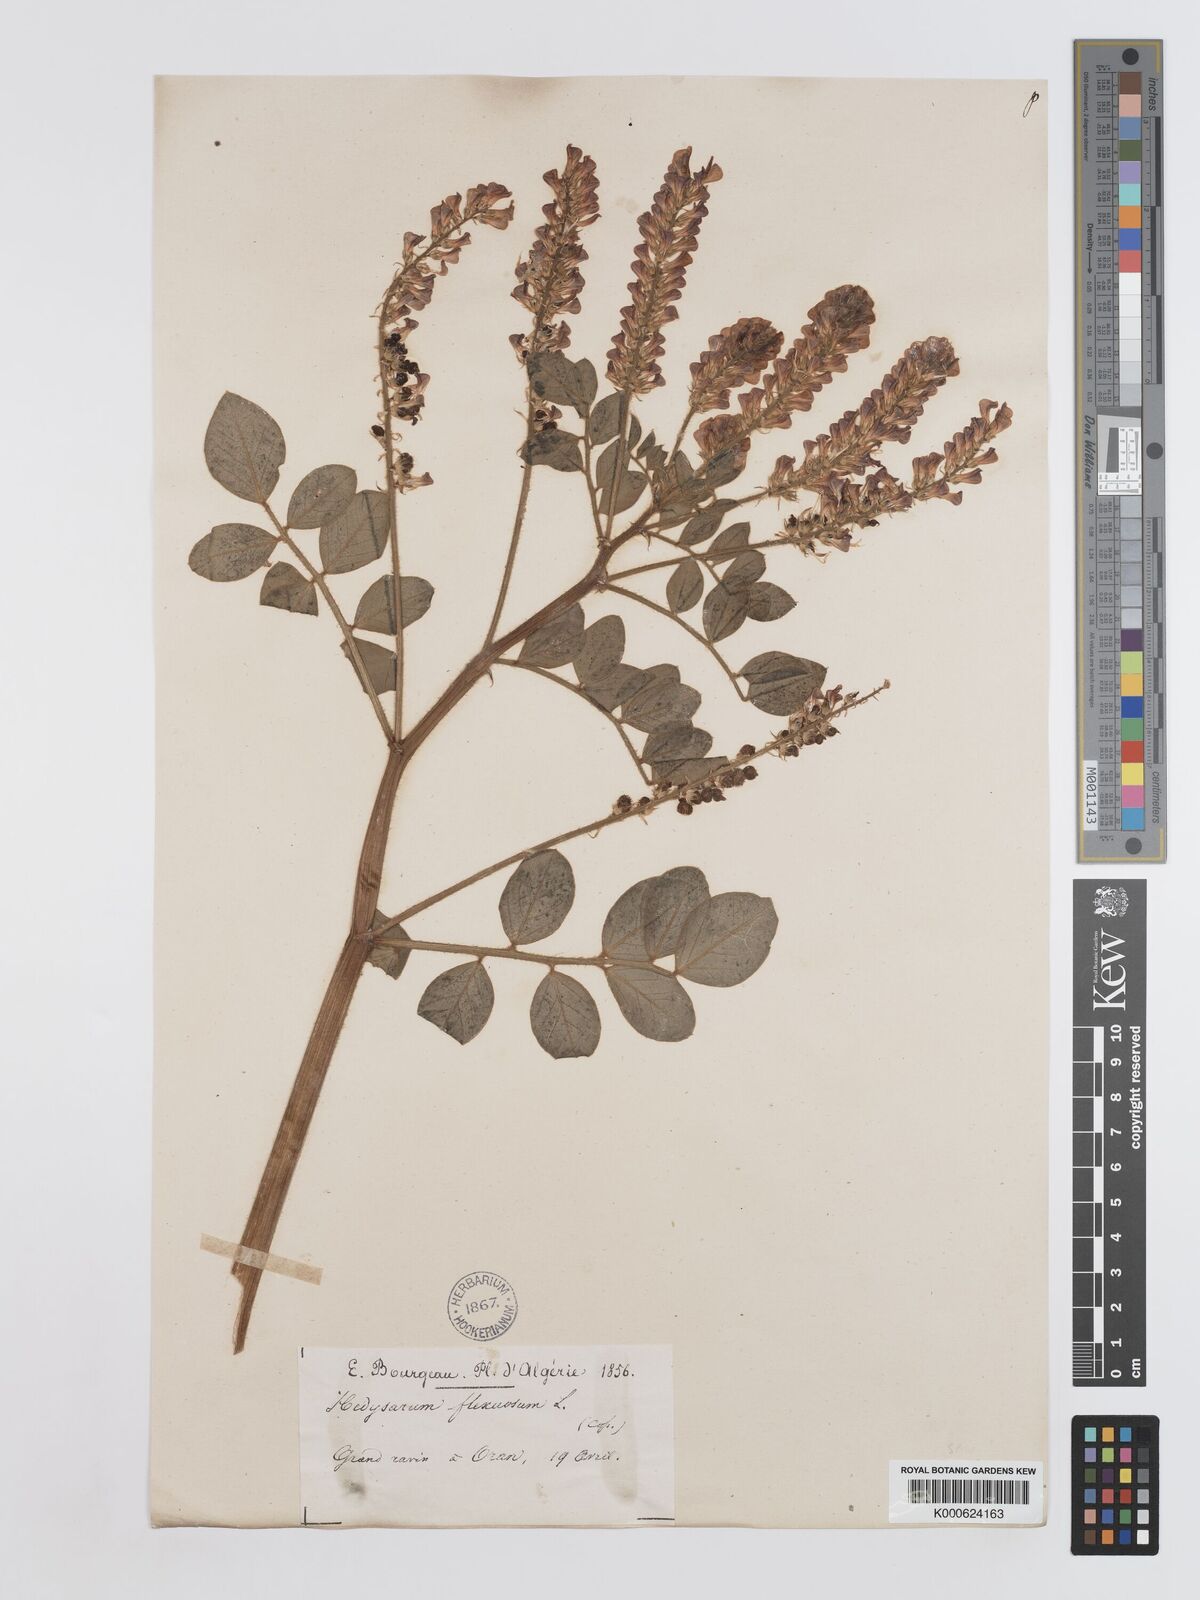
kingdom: Plantae
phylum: Tracheophyta
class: Magnoliopsida
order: Fabales
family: Fabaceae
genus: Sulla
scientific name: Sulla flexuosa
